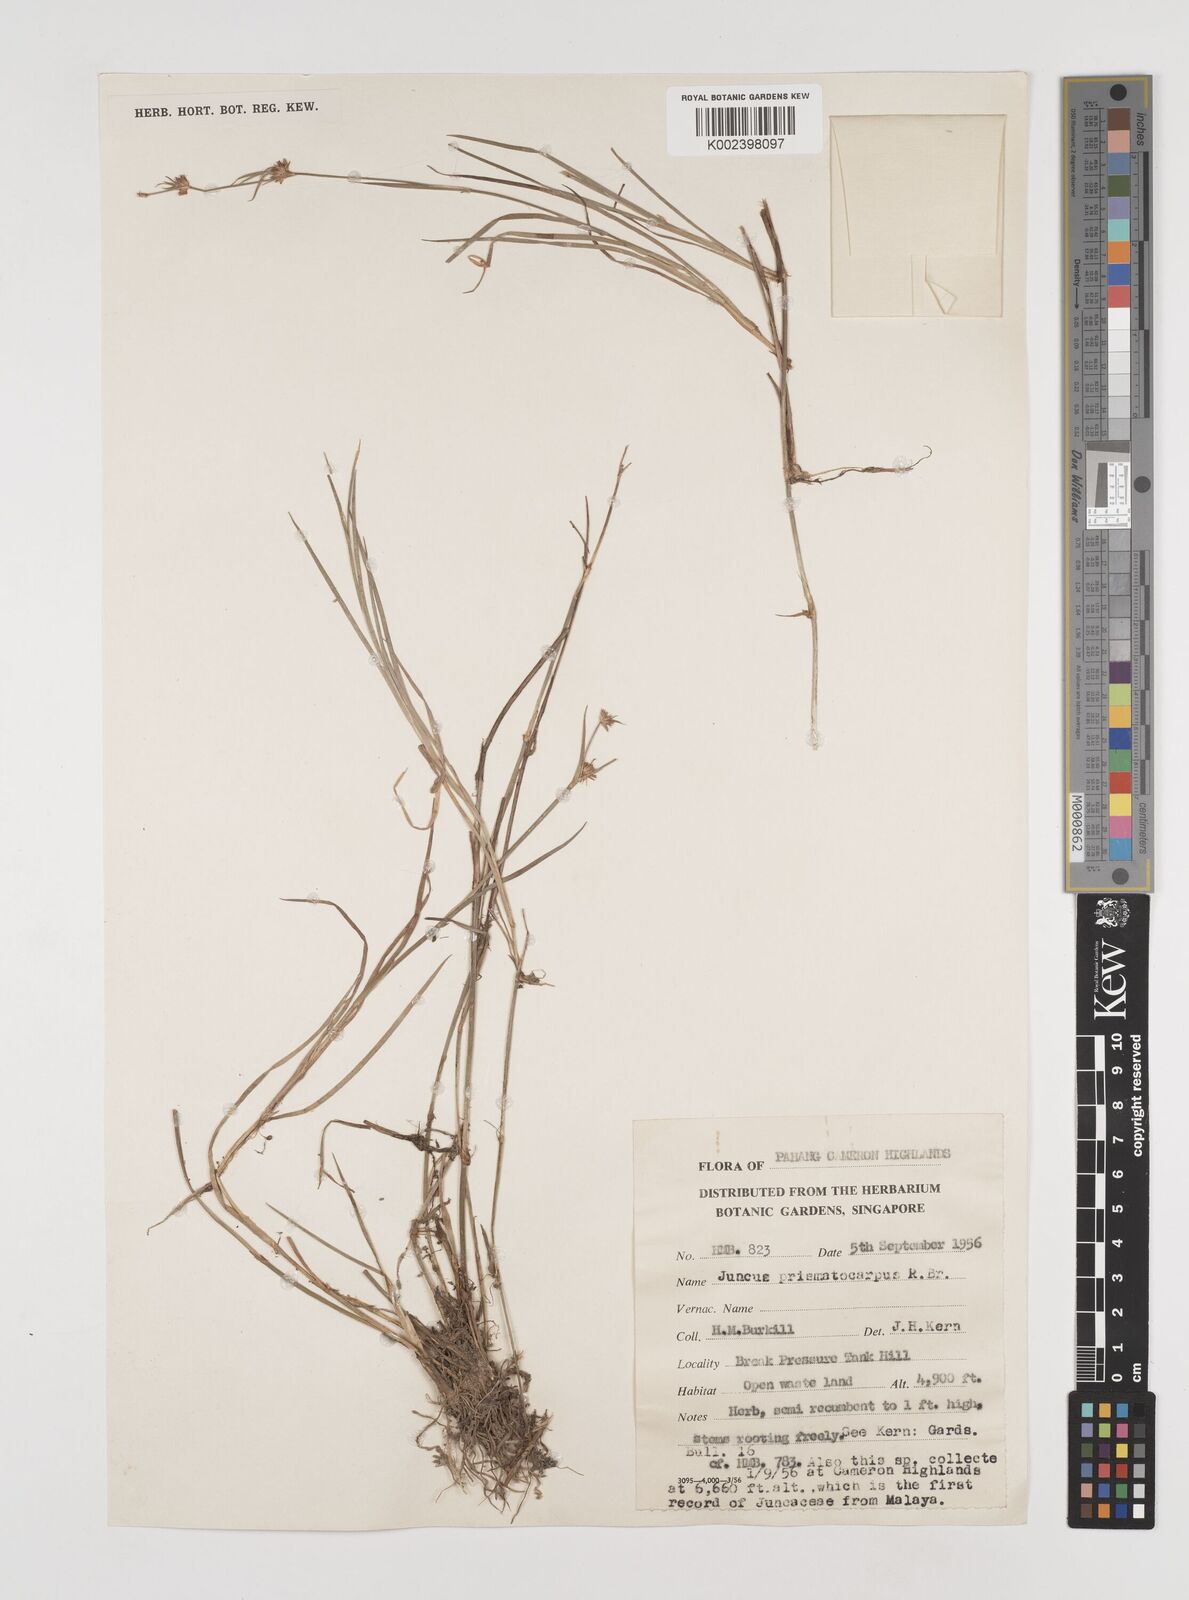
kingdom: Plantae
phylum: Tracheophyta
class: Liliopsida
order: Poales
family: Juncaceae
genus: Juncus
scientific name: Juncus prismatocarpus
